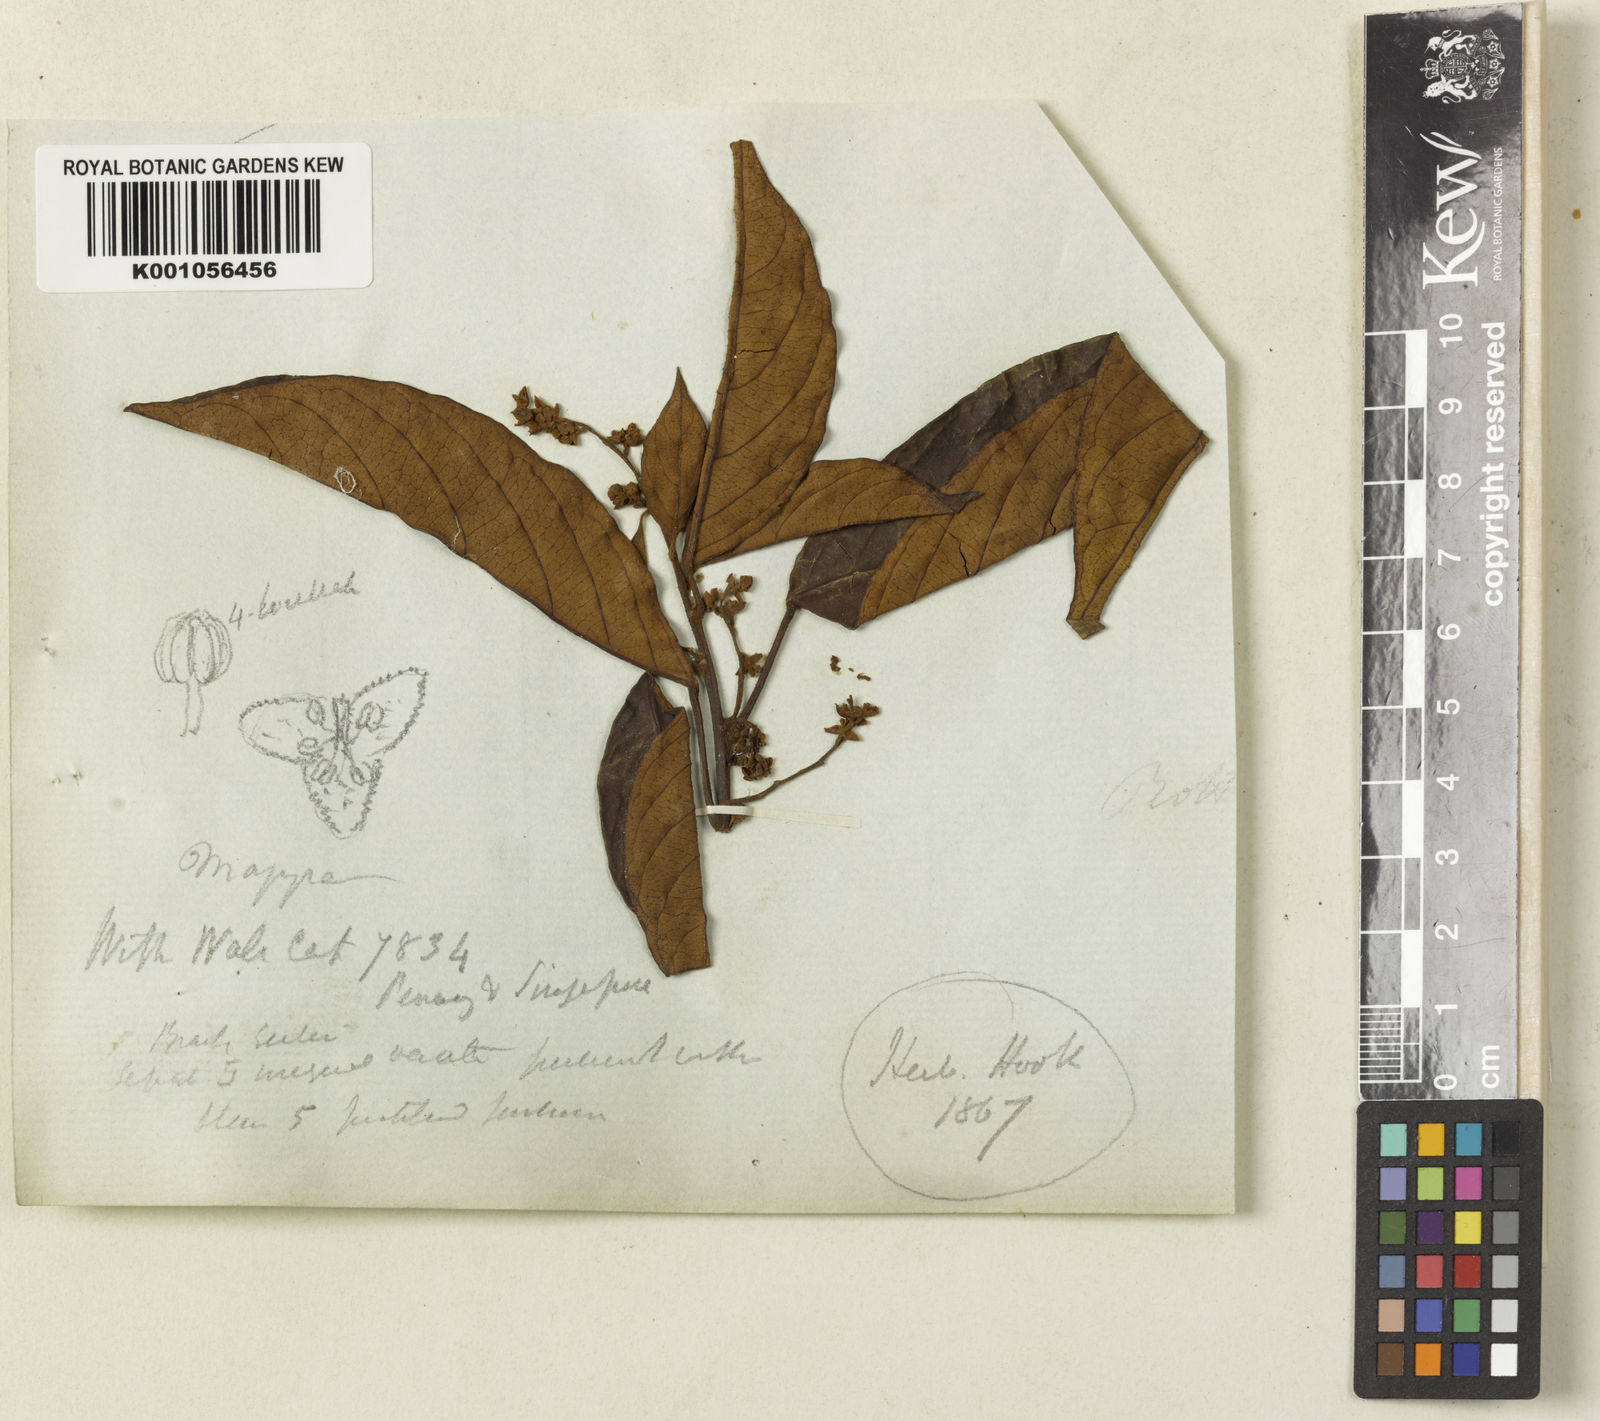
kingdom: Plantae
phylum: Tracheophyta
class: Magnoliopsida
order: Malpighiales
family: Phyllanthaceae
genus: Baccaurea
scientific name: Baccaurea
